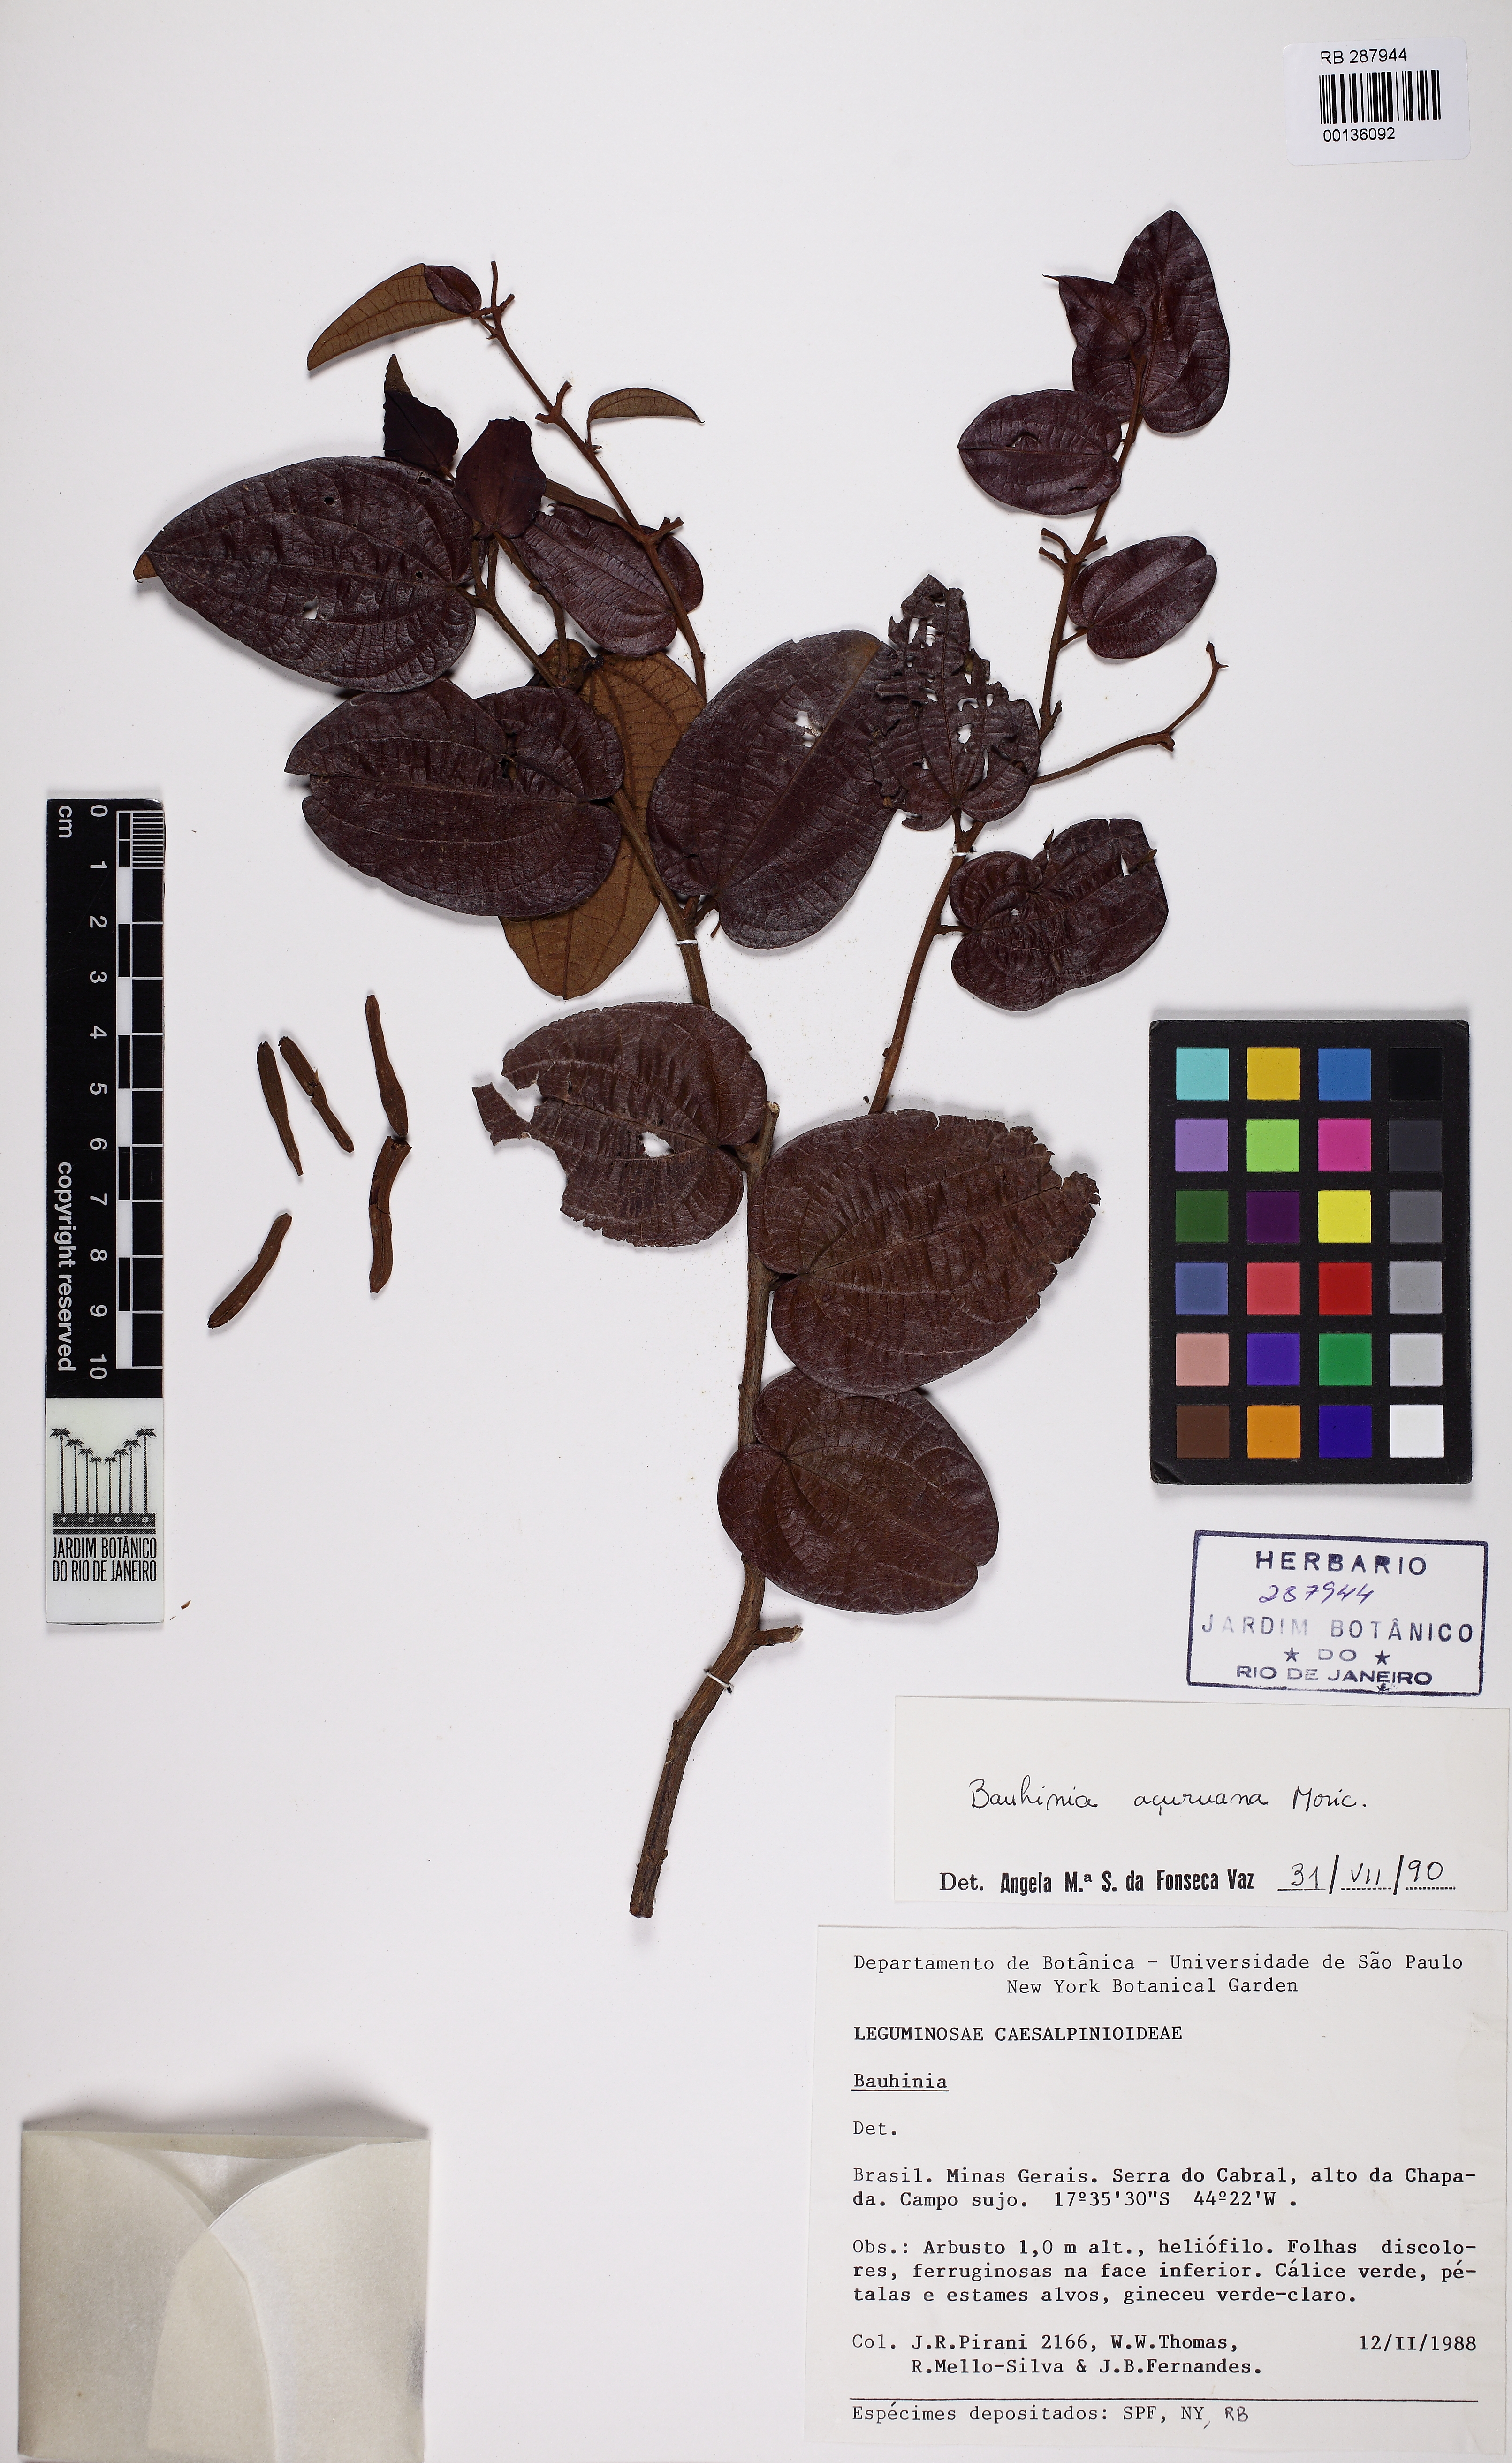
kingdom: Plantae
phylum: Tracheophyta
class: Magnoliopsida
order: Fabales
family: Fabaceae
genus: Bauhinia
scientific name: Bauhinia acuruana
